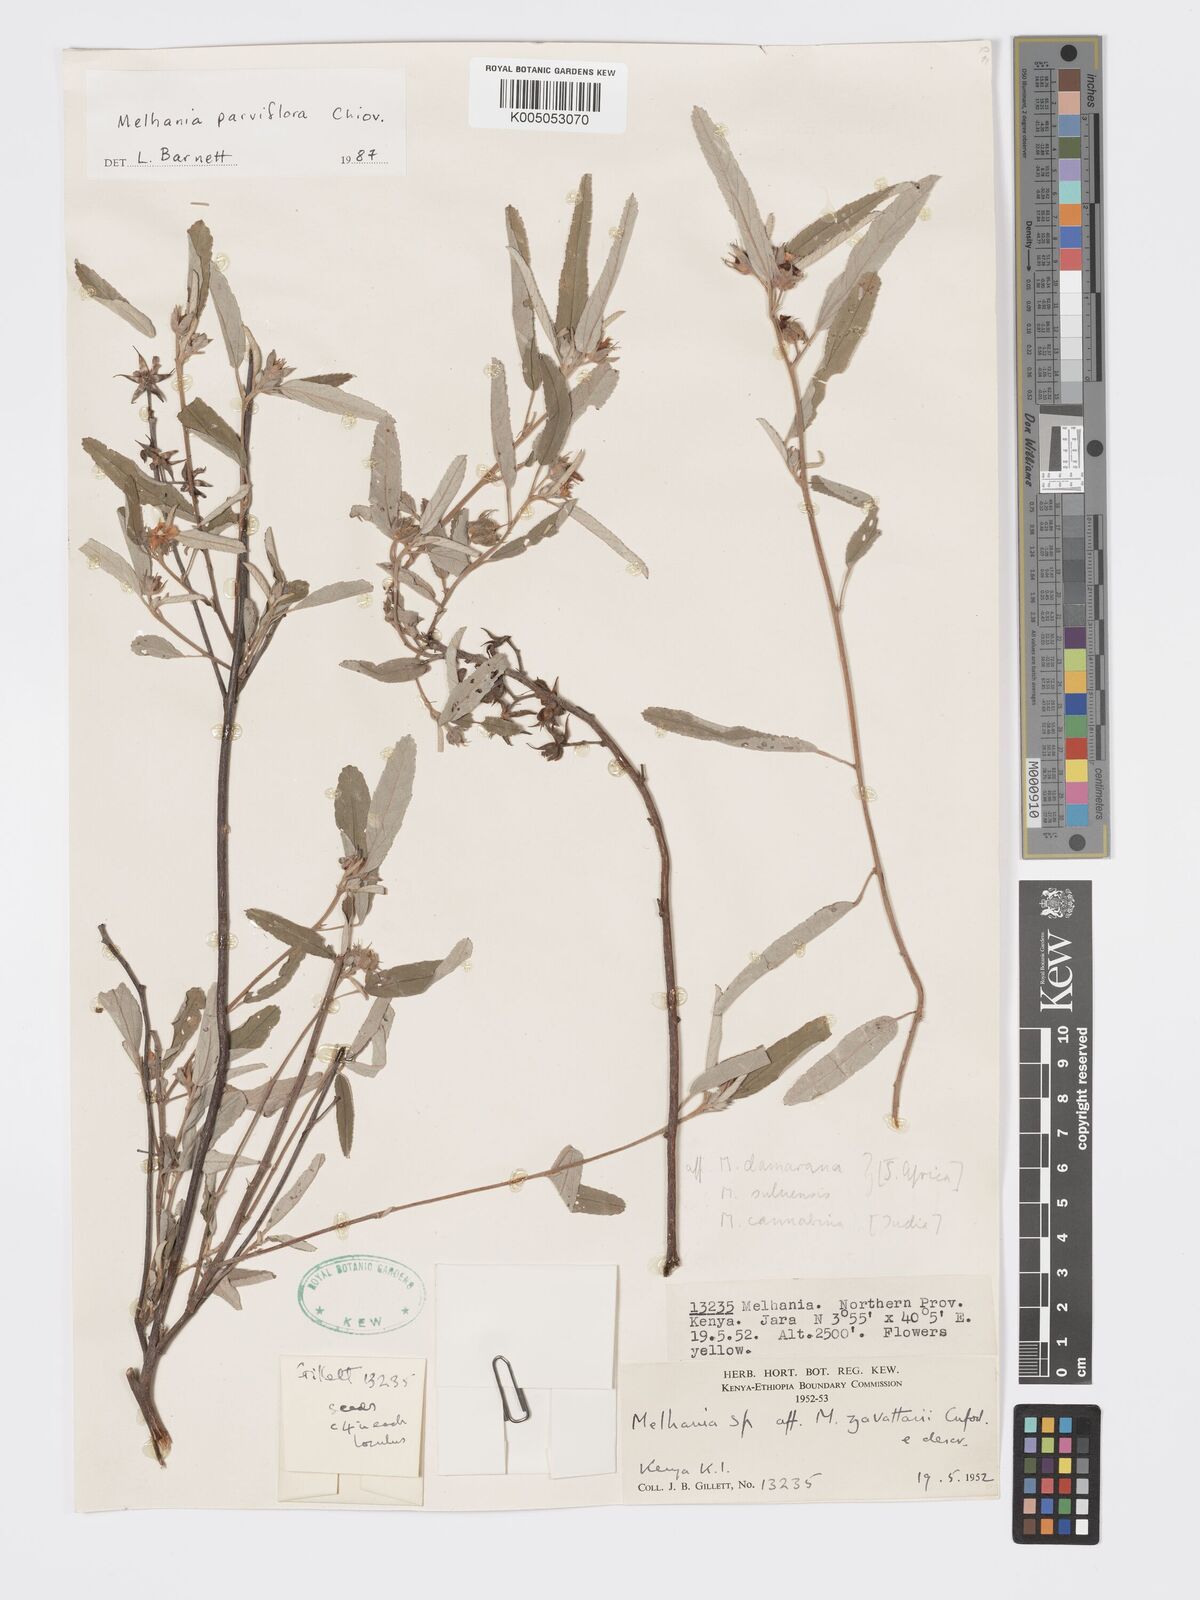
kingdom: Plantae
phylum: Tracheophyta
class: Magnoliopsida
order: Malvales
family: Malvaceae
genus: Melhania
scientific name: Melhania parviflora
